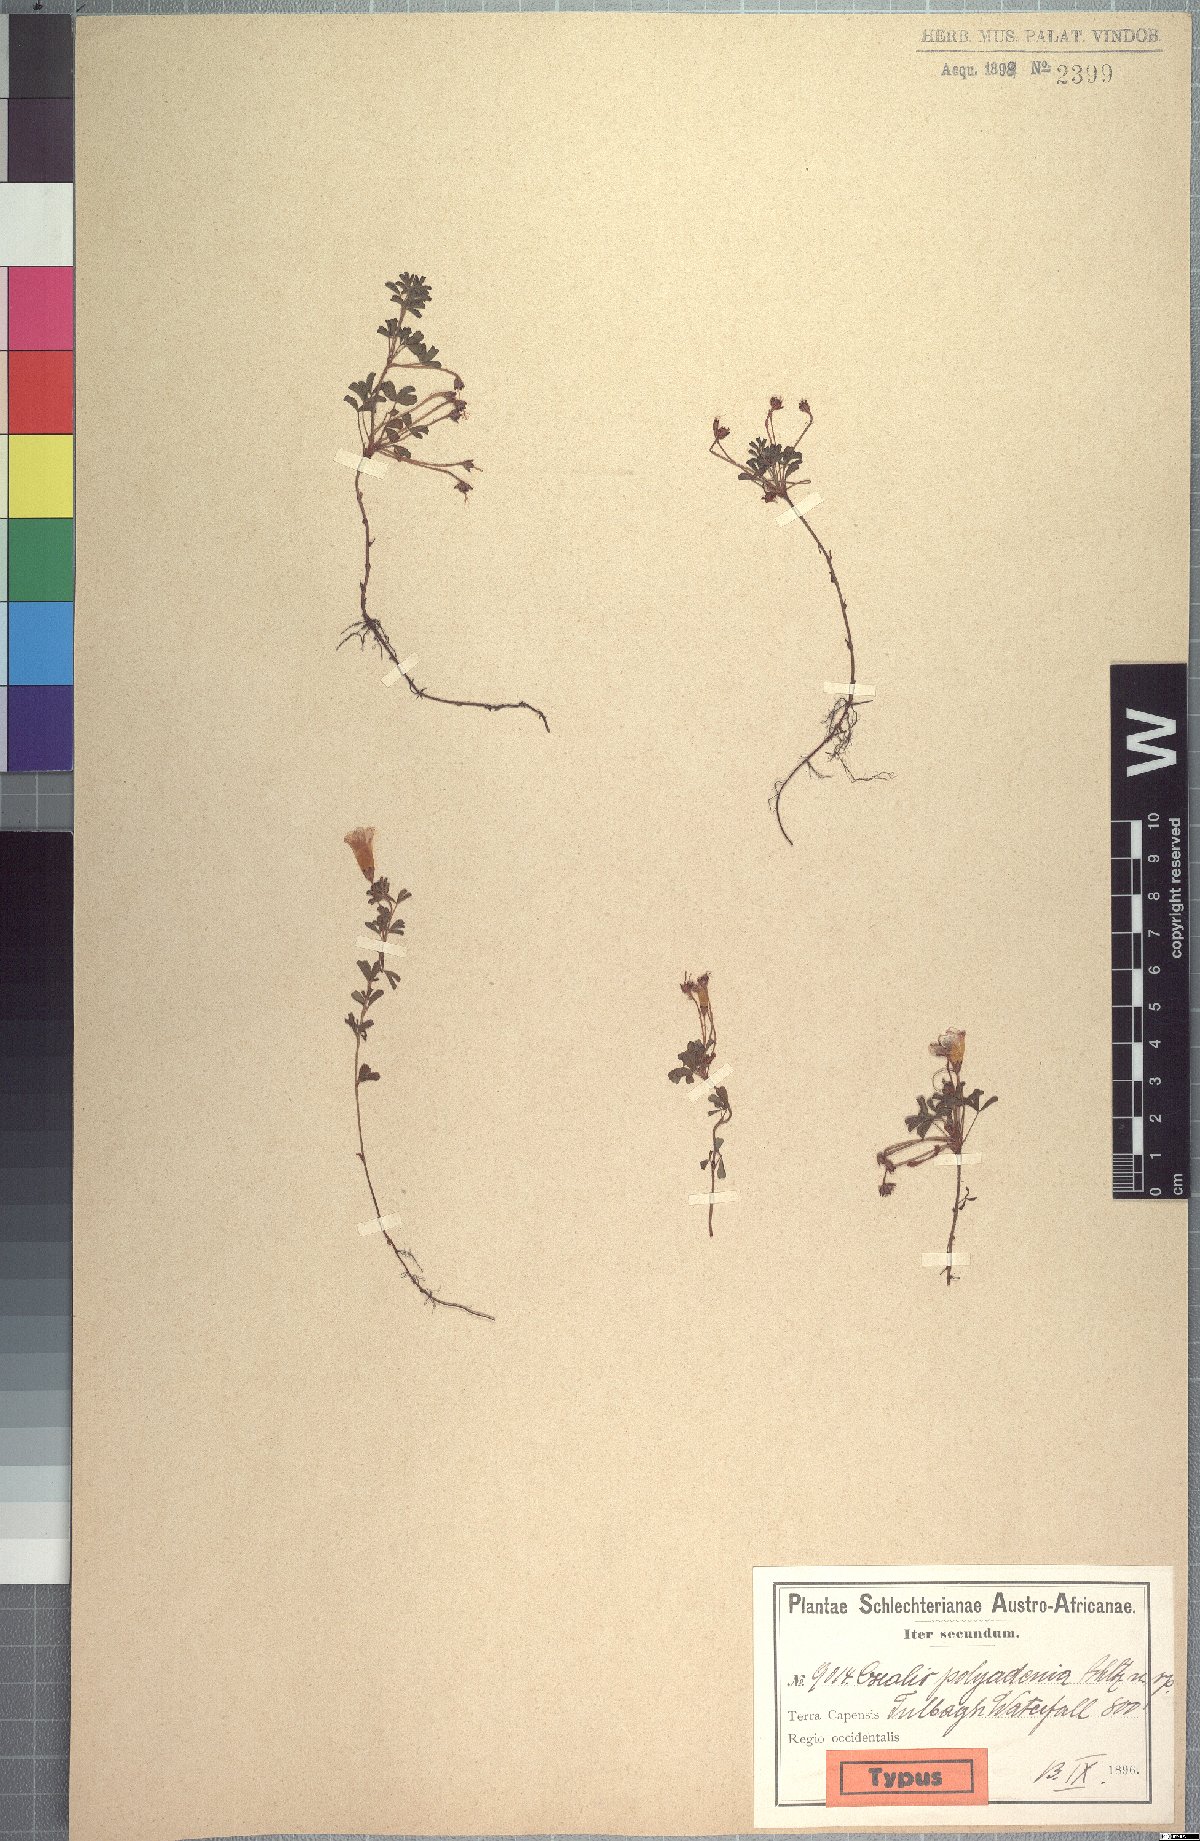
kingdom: Plantae
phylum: Tracheophyta
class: Magnoliopsida
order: Oxalidales
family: Oxalidaceae
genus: Oxalis
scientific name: Oxalis multicaulis
